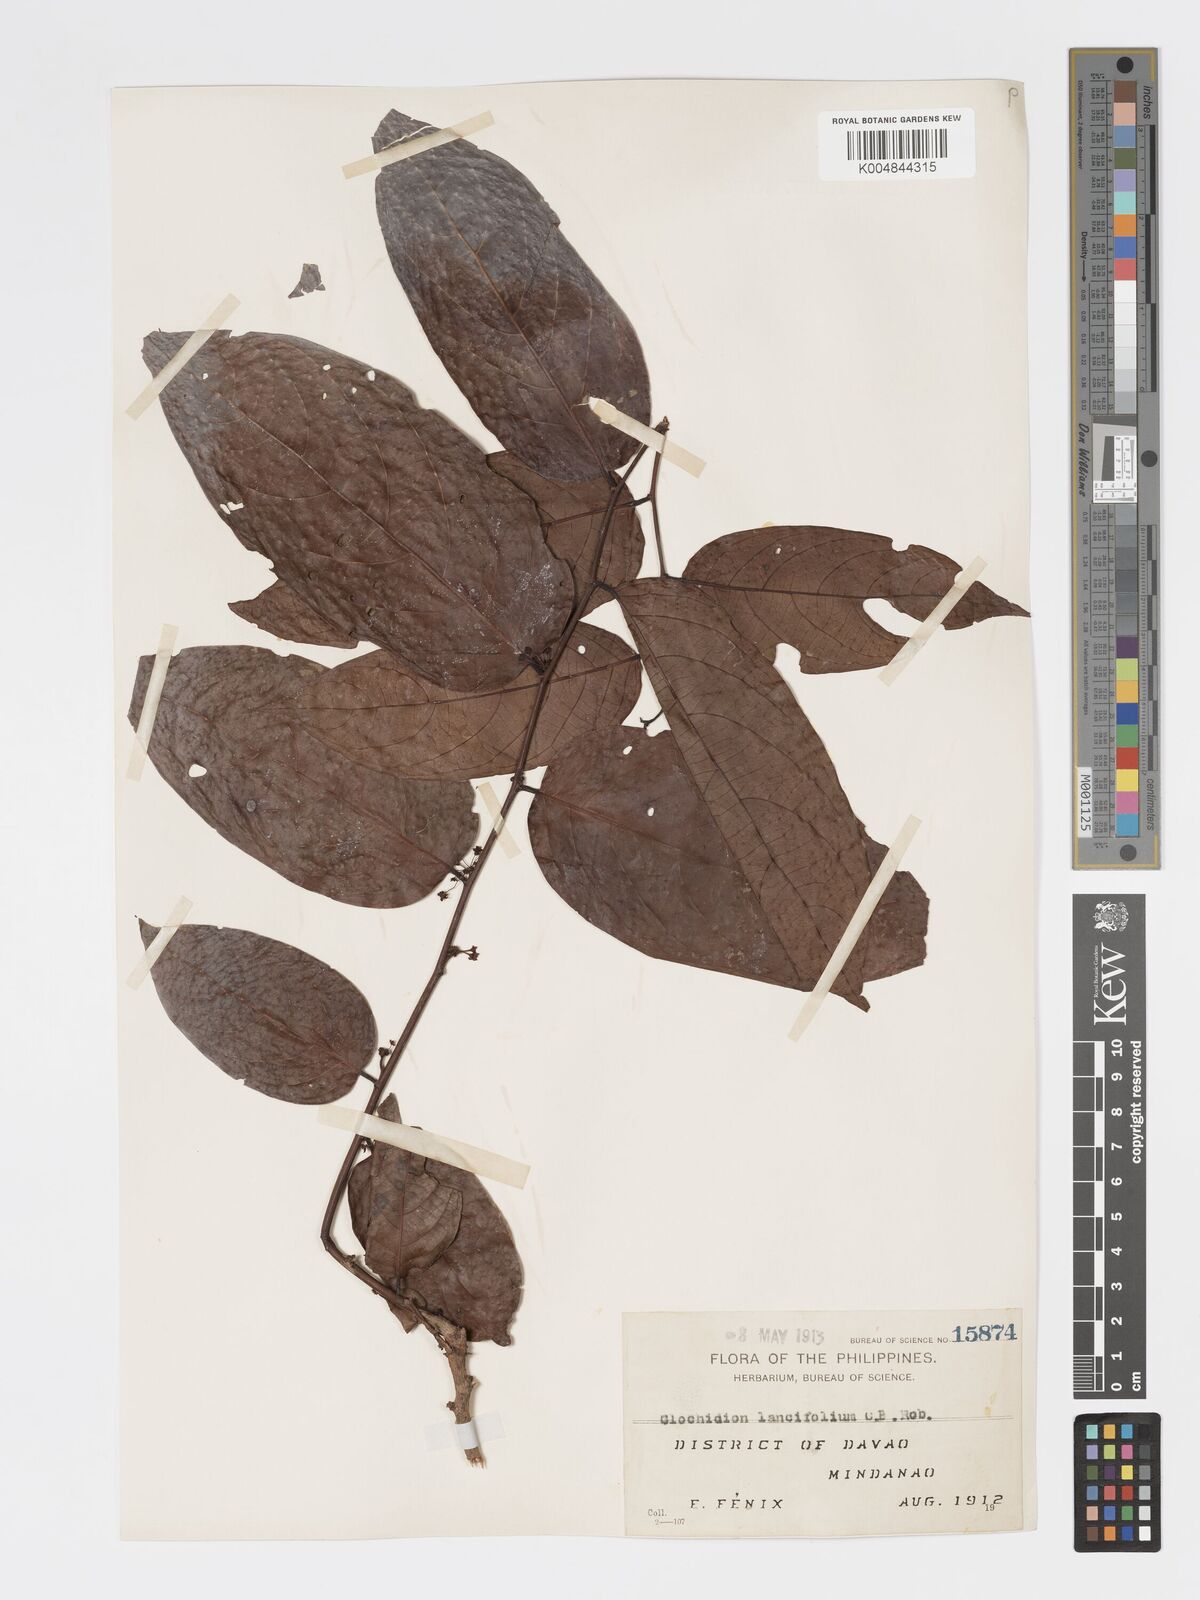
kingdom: Plantae
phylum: Tracheophyta
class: Magnoliopsida
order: Malpighiales
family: Phyllanthaceae
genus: Glochidion
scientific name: Glochidion urophylloides
